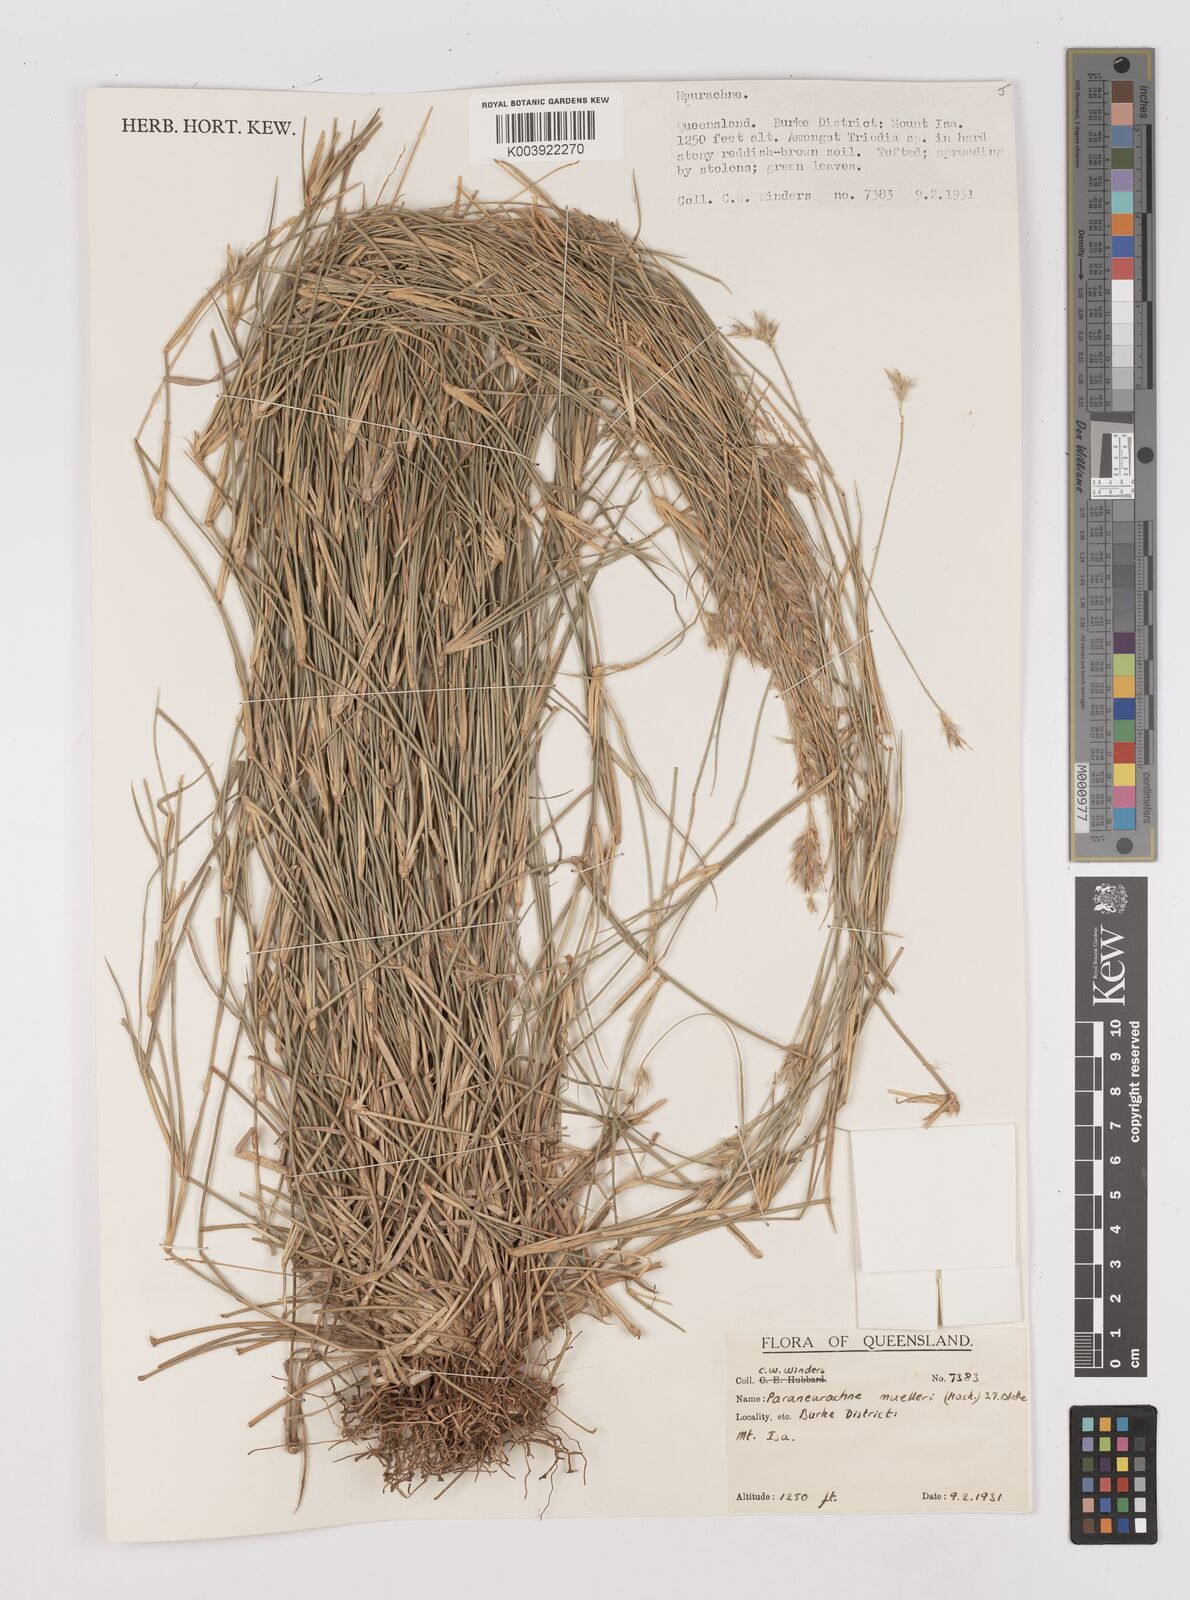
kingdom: Plantae
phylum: Tracheophyta
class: Liliopsida
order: Poales
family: Poaceae
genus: Neurachne
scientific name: Neurachne muelleri
